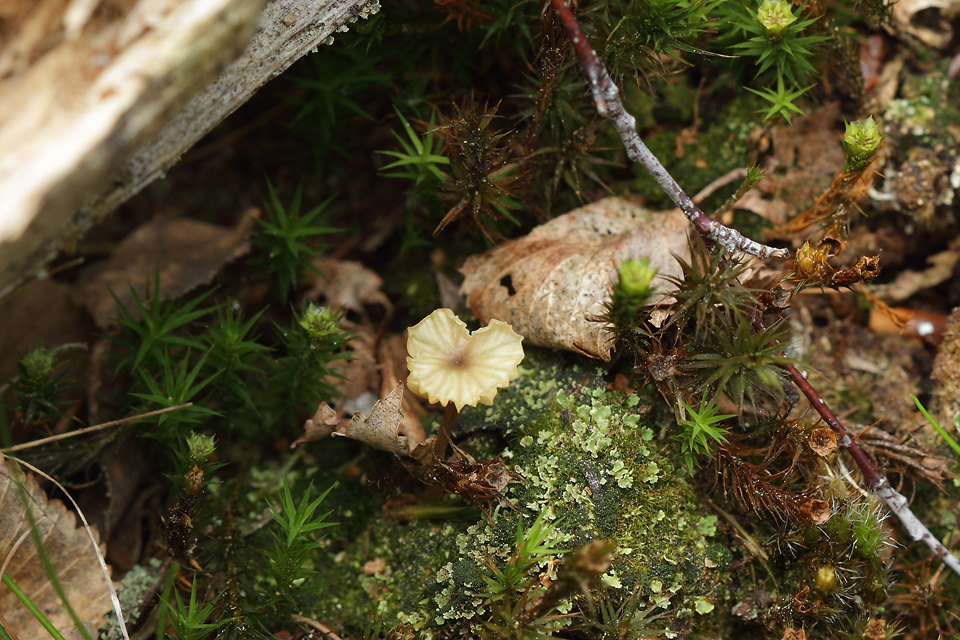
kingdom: Fungi
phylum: Basidiomycota
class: Agaricomycetes
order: Agaricales
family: Hygrophoraceae
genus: Lichenomphalia
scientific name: Lichenomphalia umbellifera
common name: tørve-lavhat
